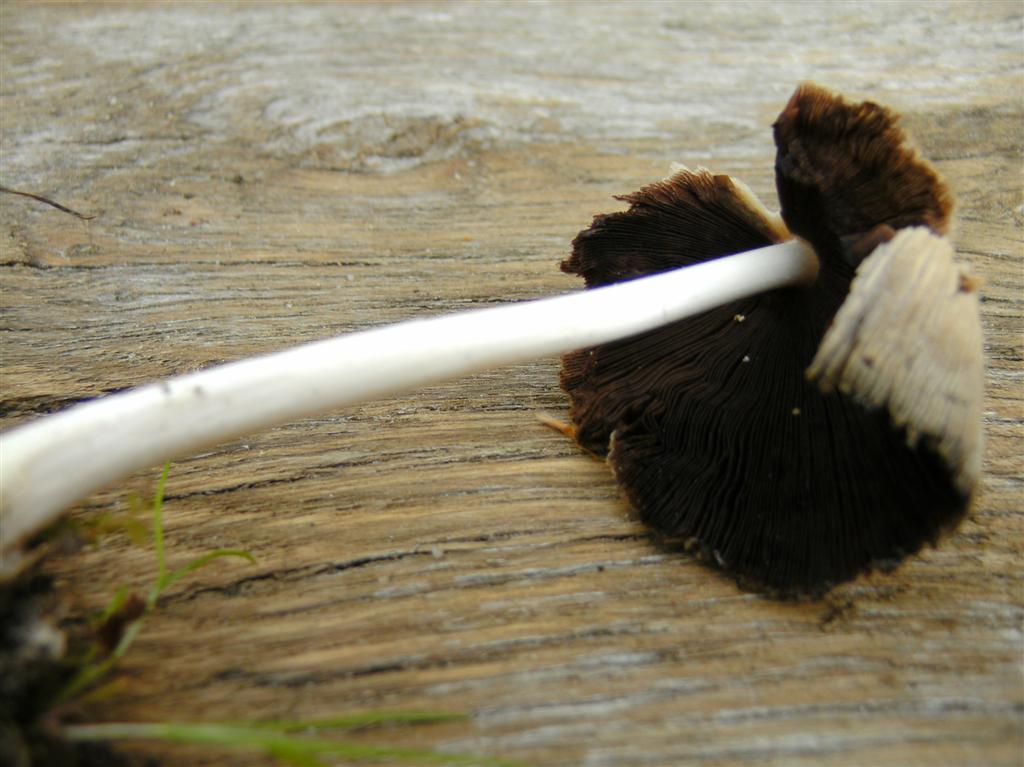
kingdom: Fungi
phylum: Basidiomycota
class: Agaricomycetes
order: Agaricales
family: Psathyrellaceae
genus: Coprinellus
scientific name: Coprinellus domesticus
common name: hus-blækhat
